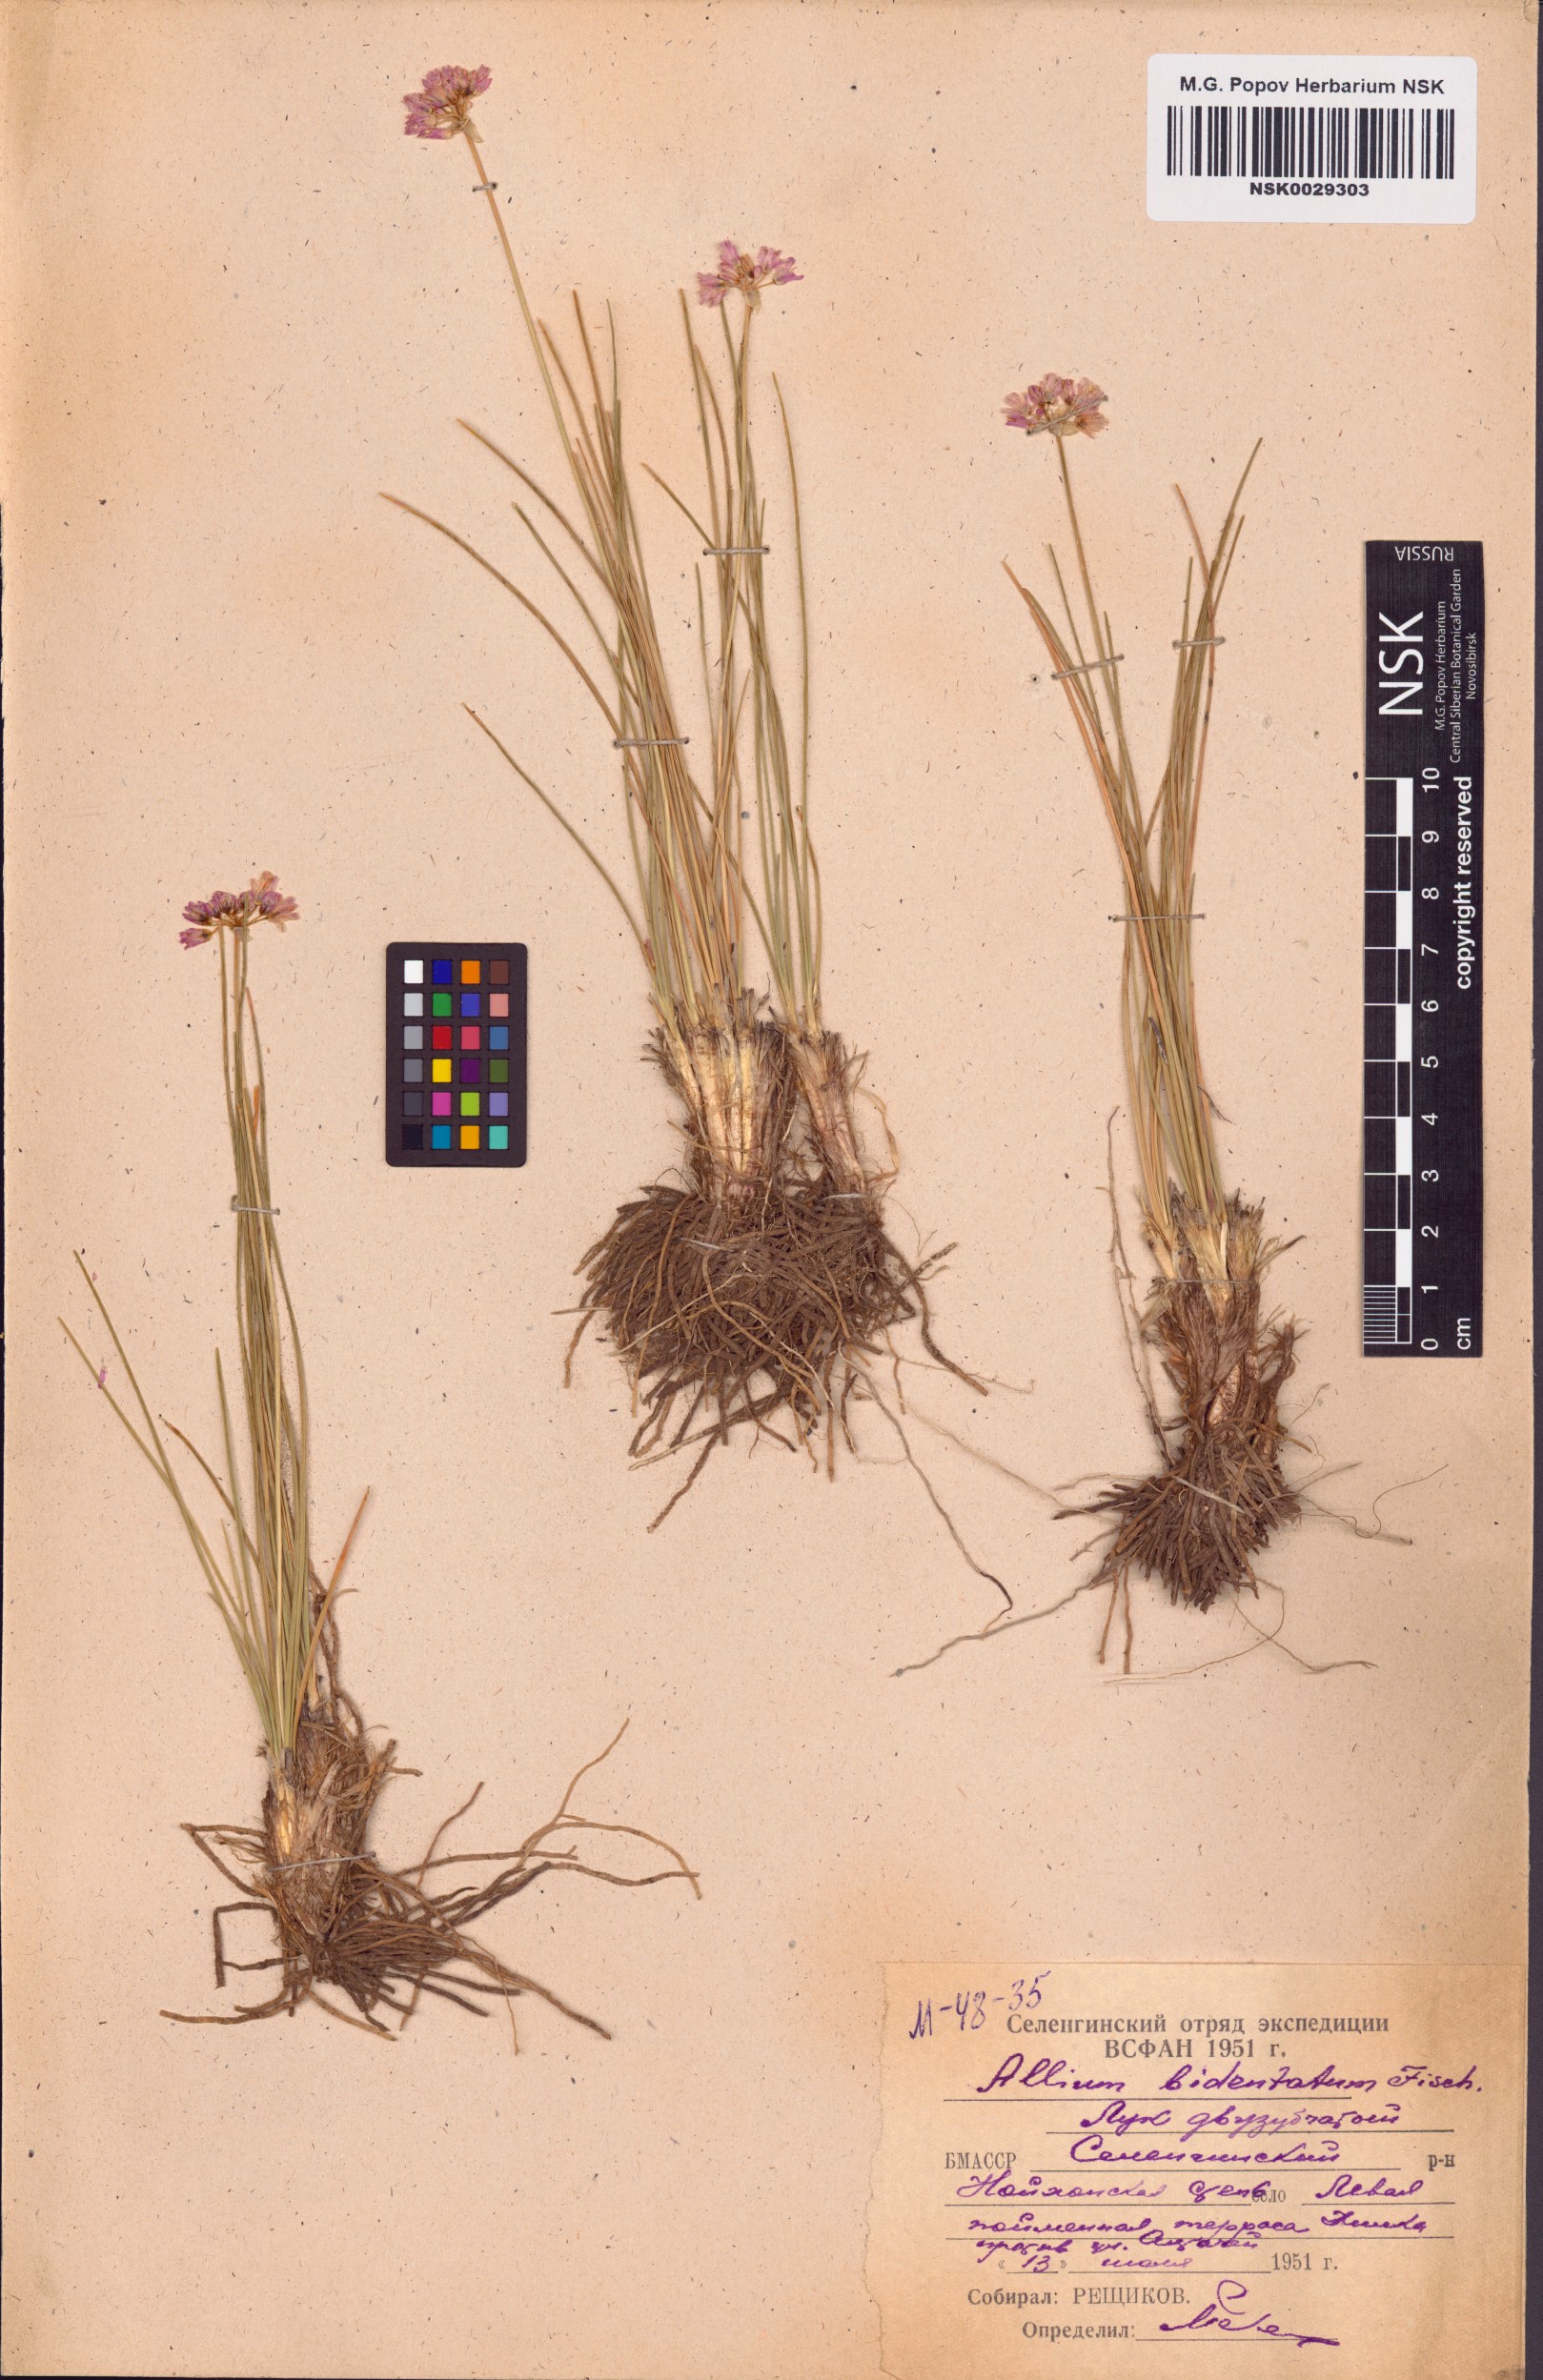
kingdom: Plantae
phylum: Tracheophyta
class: Liliopsida
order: Asparagales
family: Amaryllidaceae
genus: Allium
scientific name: Allium bidentatum
